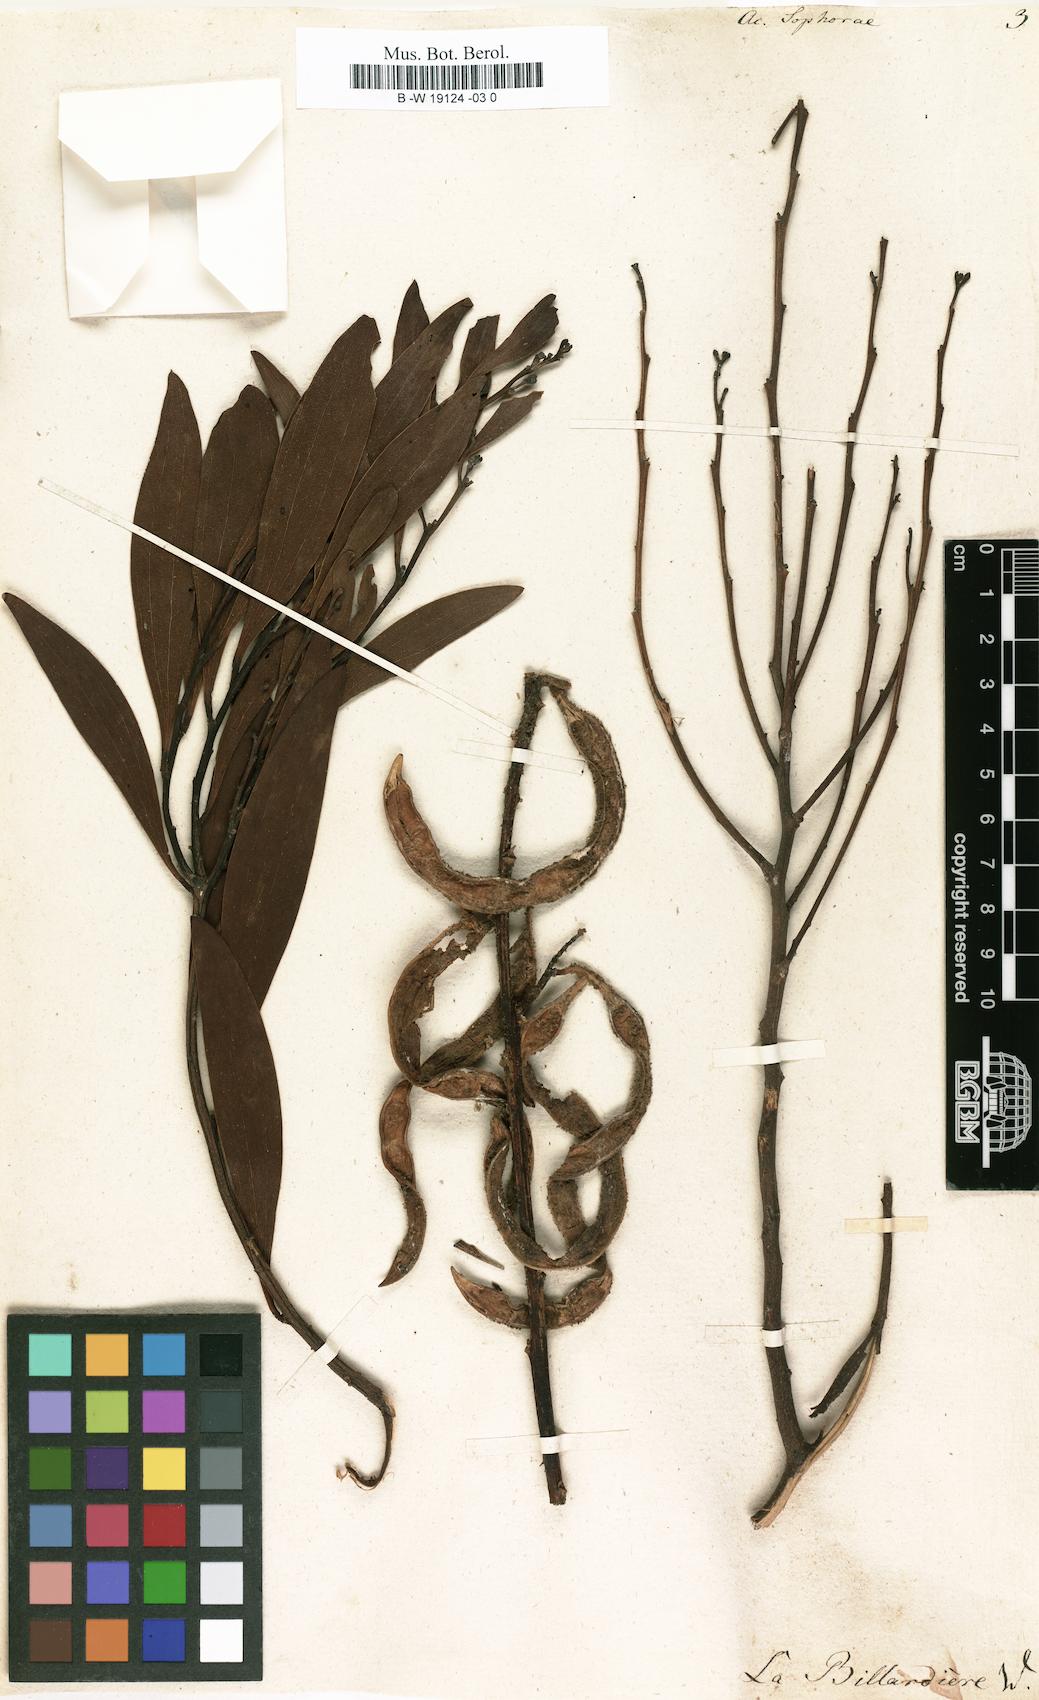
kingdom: Plantae
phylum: Tracheophyta
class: Magnoliopsida
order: Fabales
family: Fabaceae
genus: Acacia
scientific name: Acacia longifolia
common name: Sydney golden wattle
